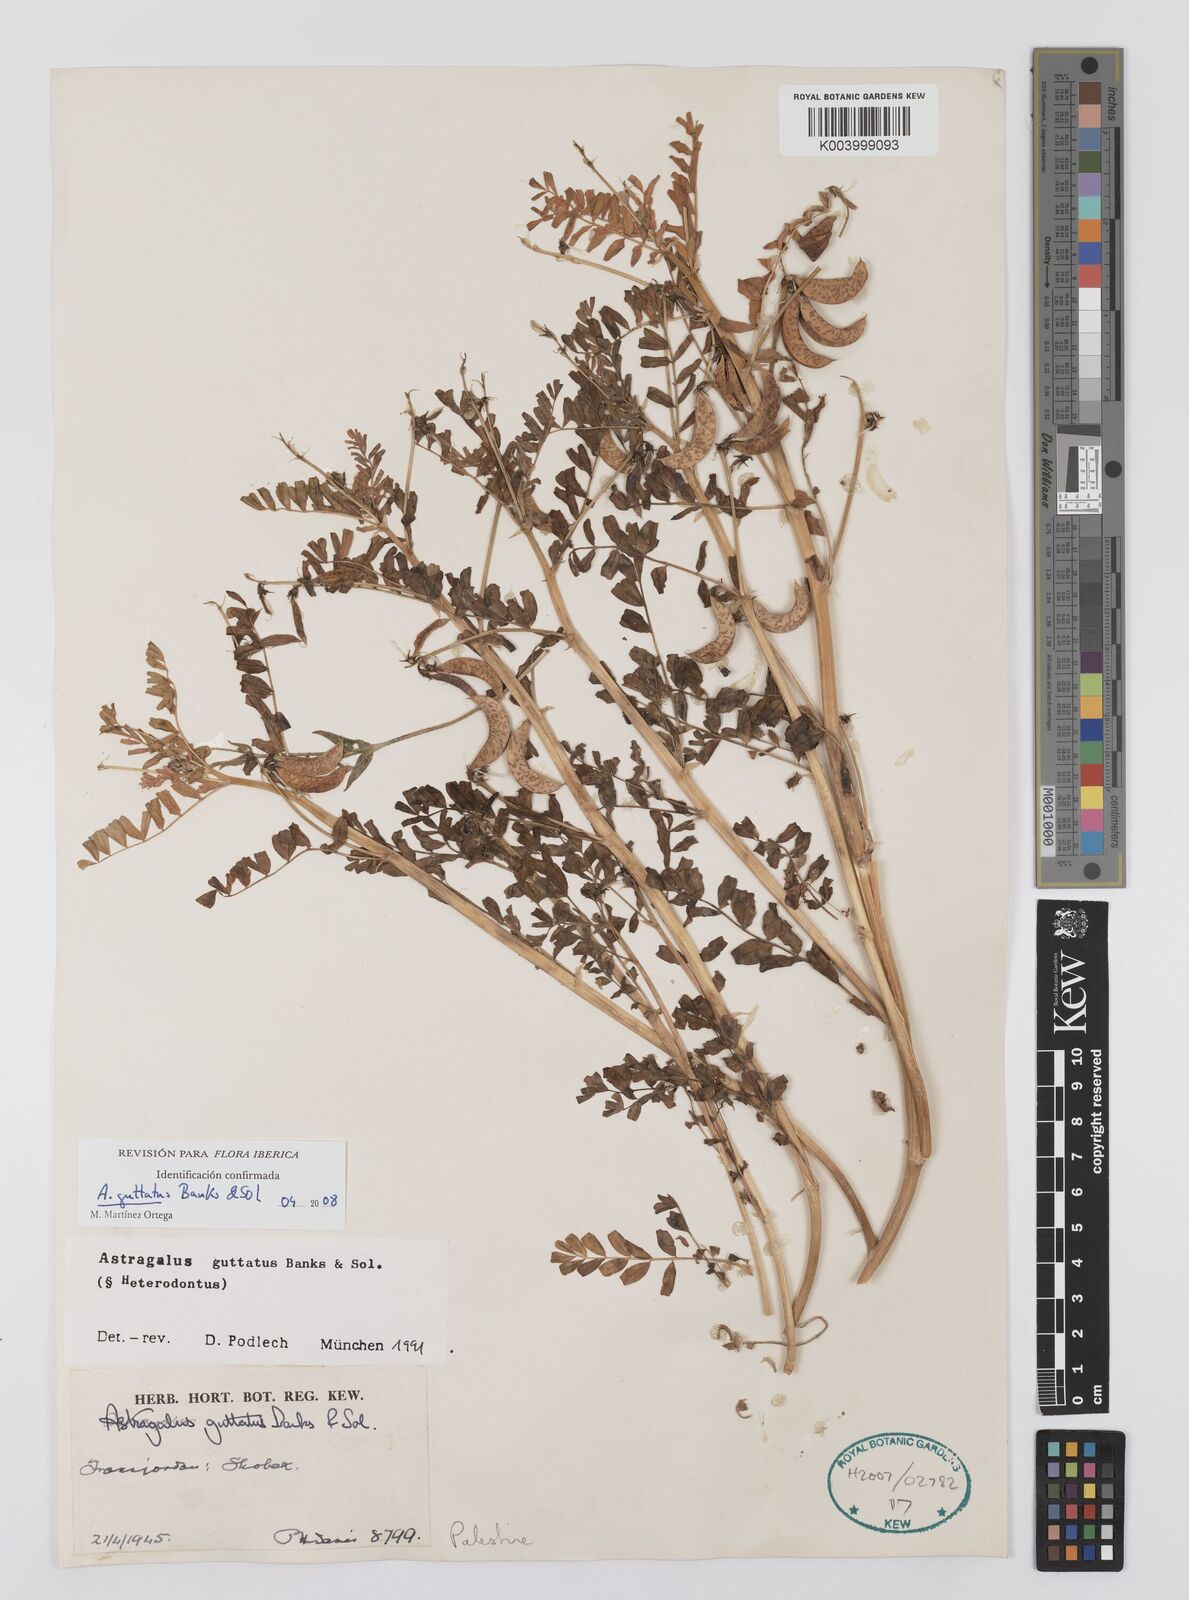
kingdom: Plantae
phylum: Tracheophyta
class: Magnoliopsida
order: Fabales
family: Fabaceae
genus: Astragalus
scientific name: Astragalus guttatus
